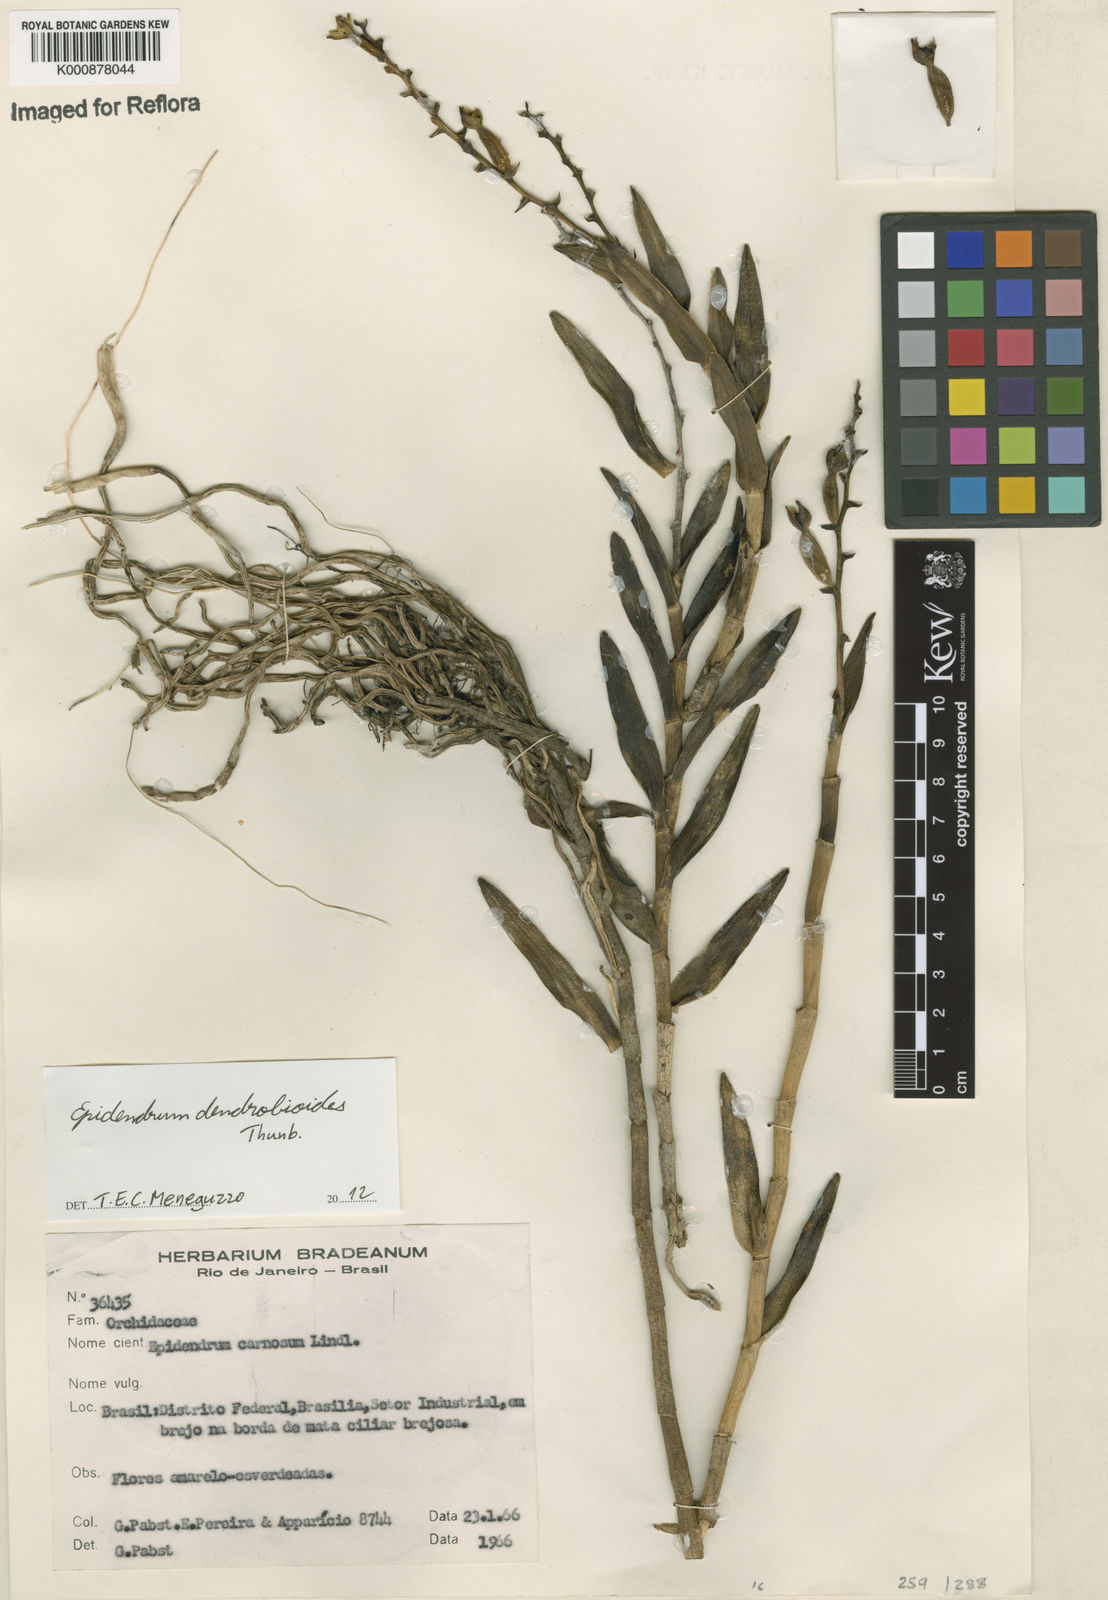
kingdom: Plantae
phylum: Tracheophyta
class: Liliopsida
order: Asparagales
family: Orchidaceae
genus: Epidendrum
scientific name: Epidendrum dendrobioides
